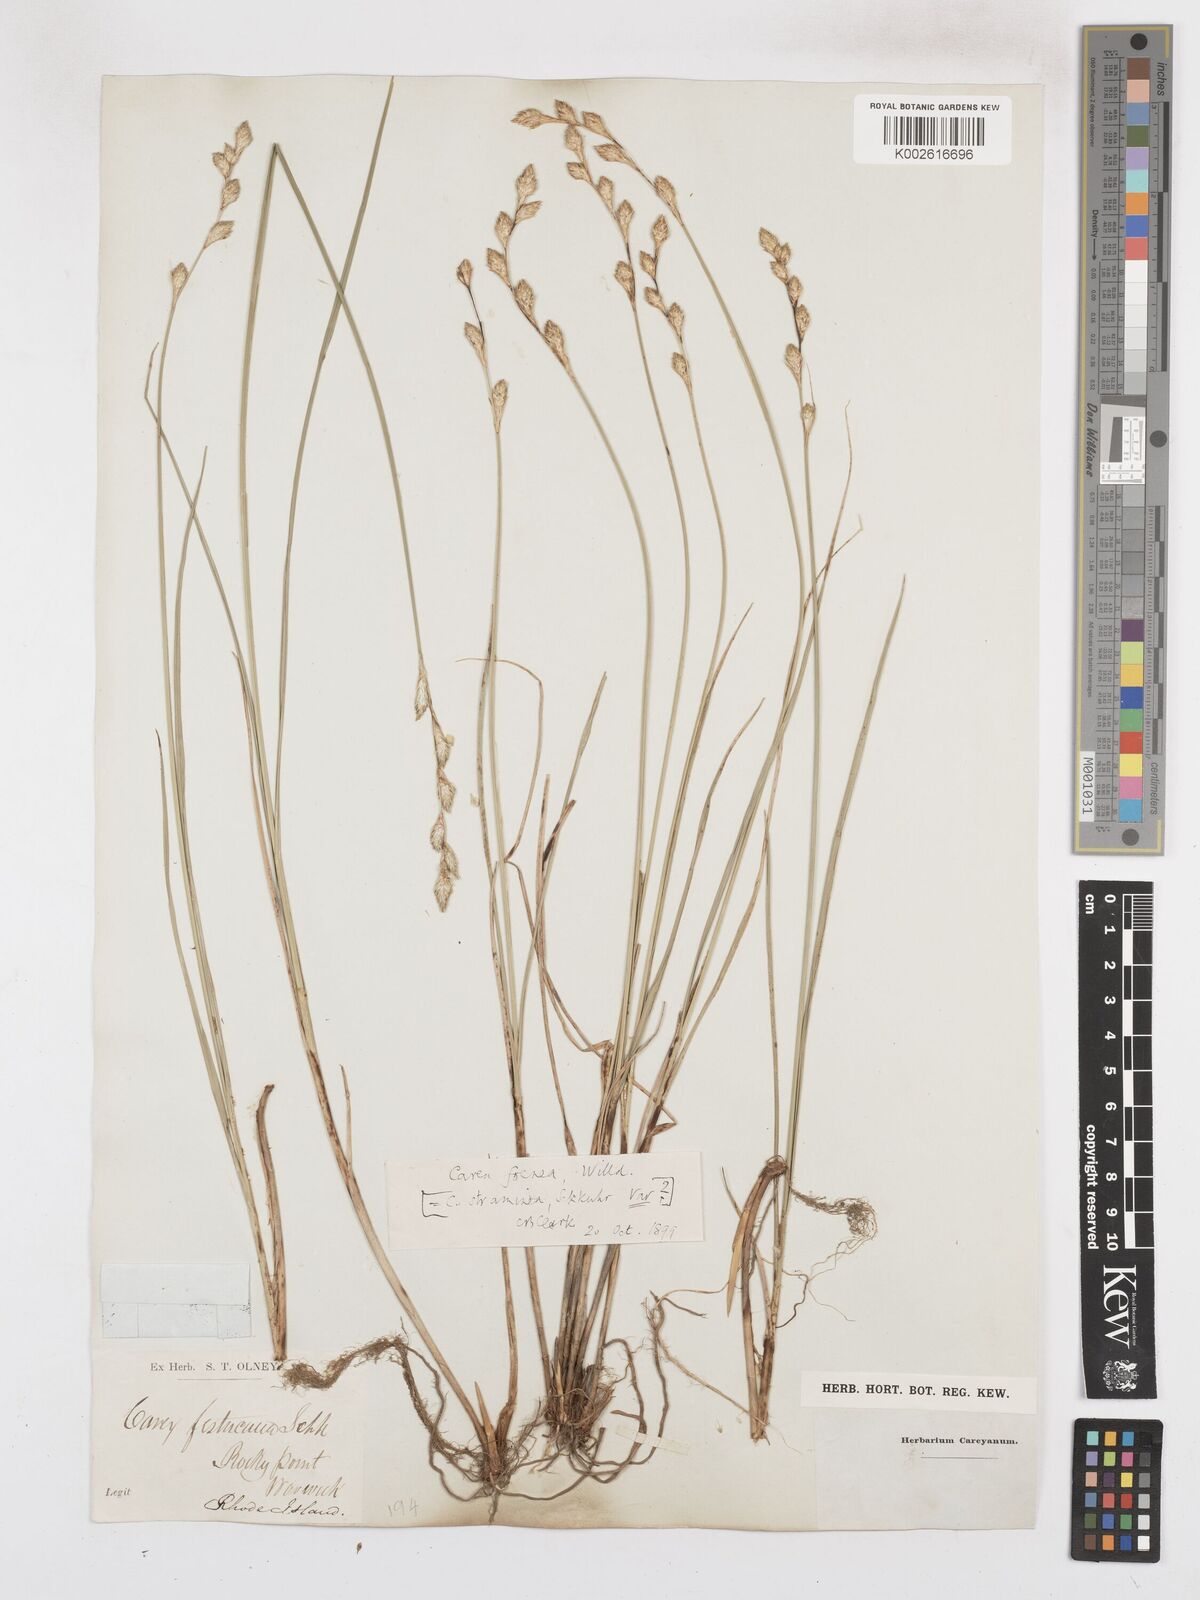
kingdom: Plantae
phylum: Tracheophyta
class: Liliopsida
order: Poales
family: Cyperaceae
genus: Carex
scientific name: Carex argyrantha
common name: Silvery-flowered sedge
